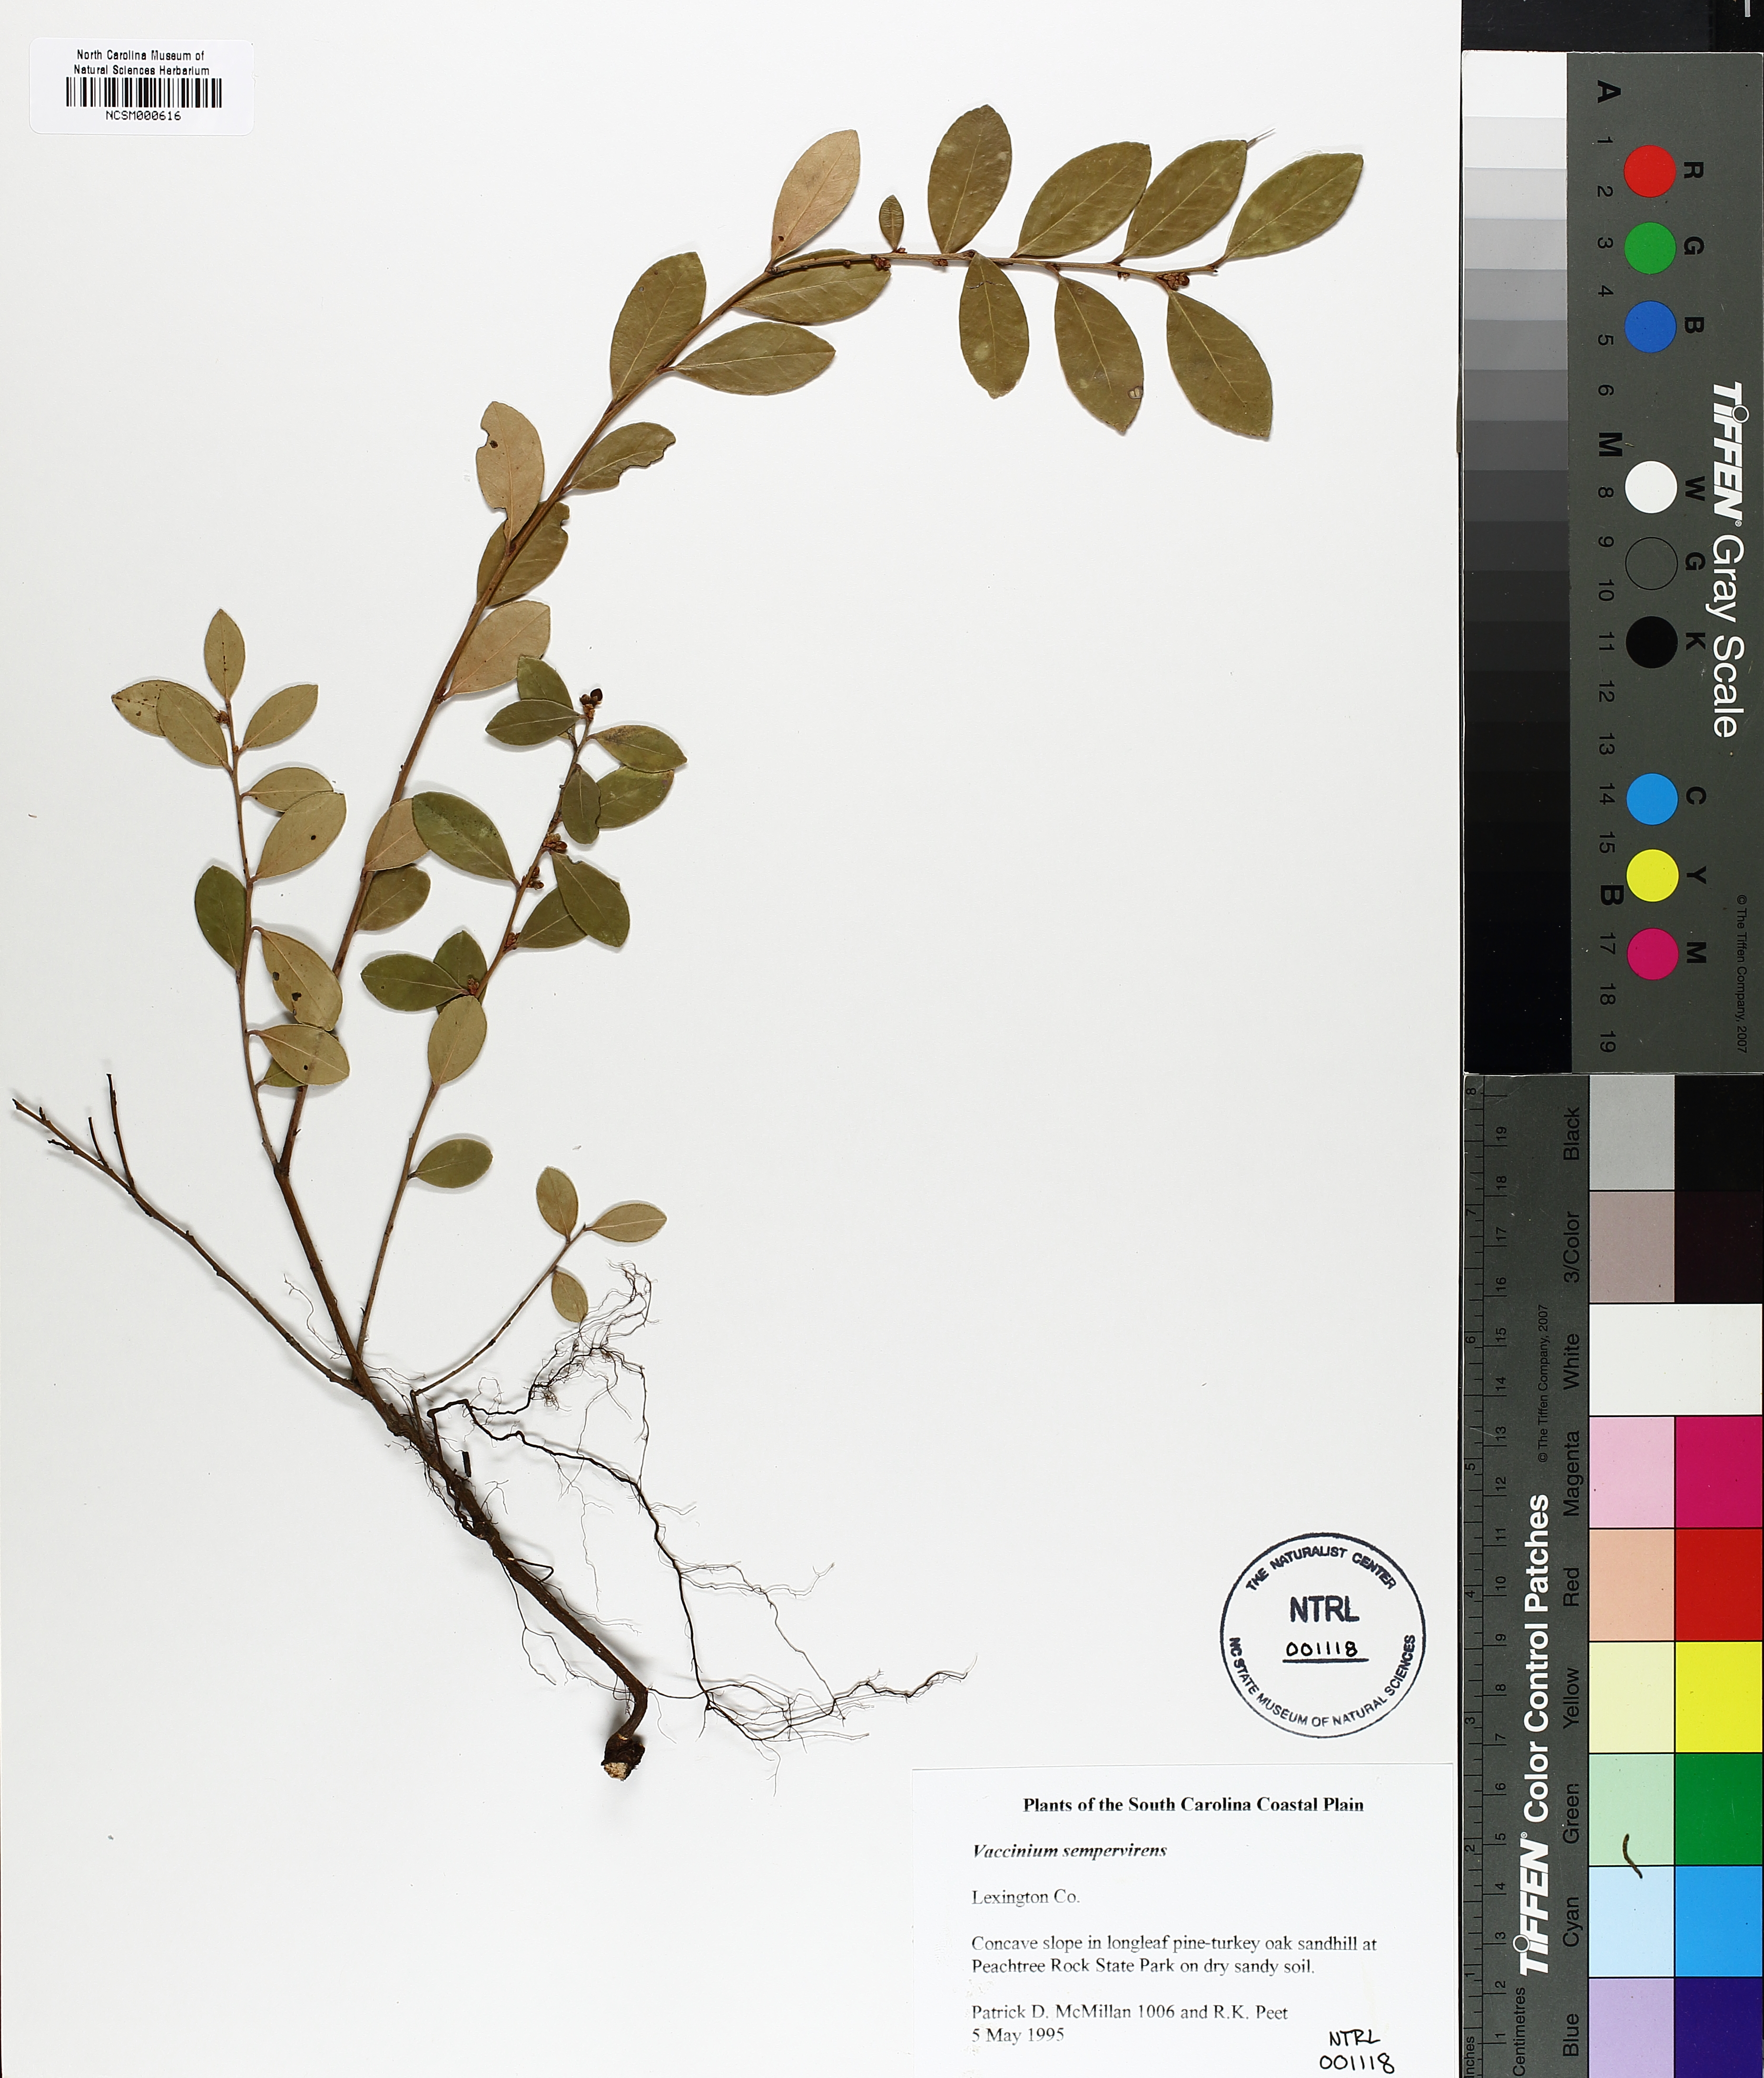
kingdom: Plantae
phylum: Tracheophyta
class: Magnoliopsida
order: Ericales
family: Ericaceae
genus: Vaccinium
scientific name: Vaccinium crassifolium
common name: Creeping blueberry
